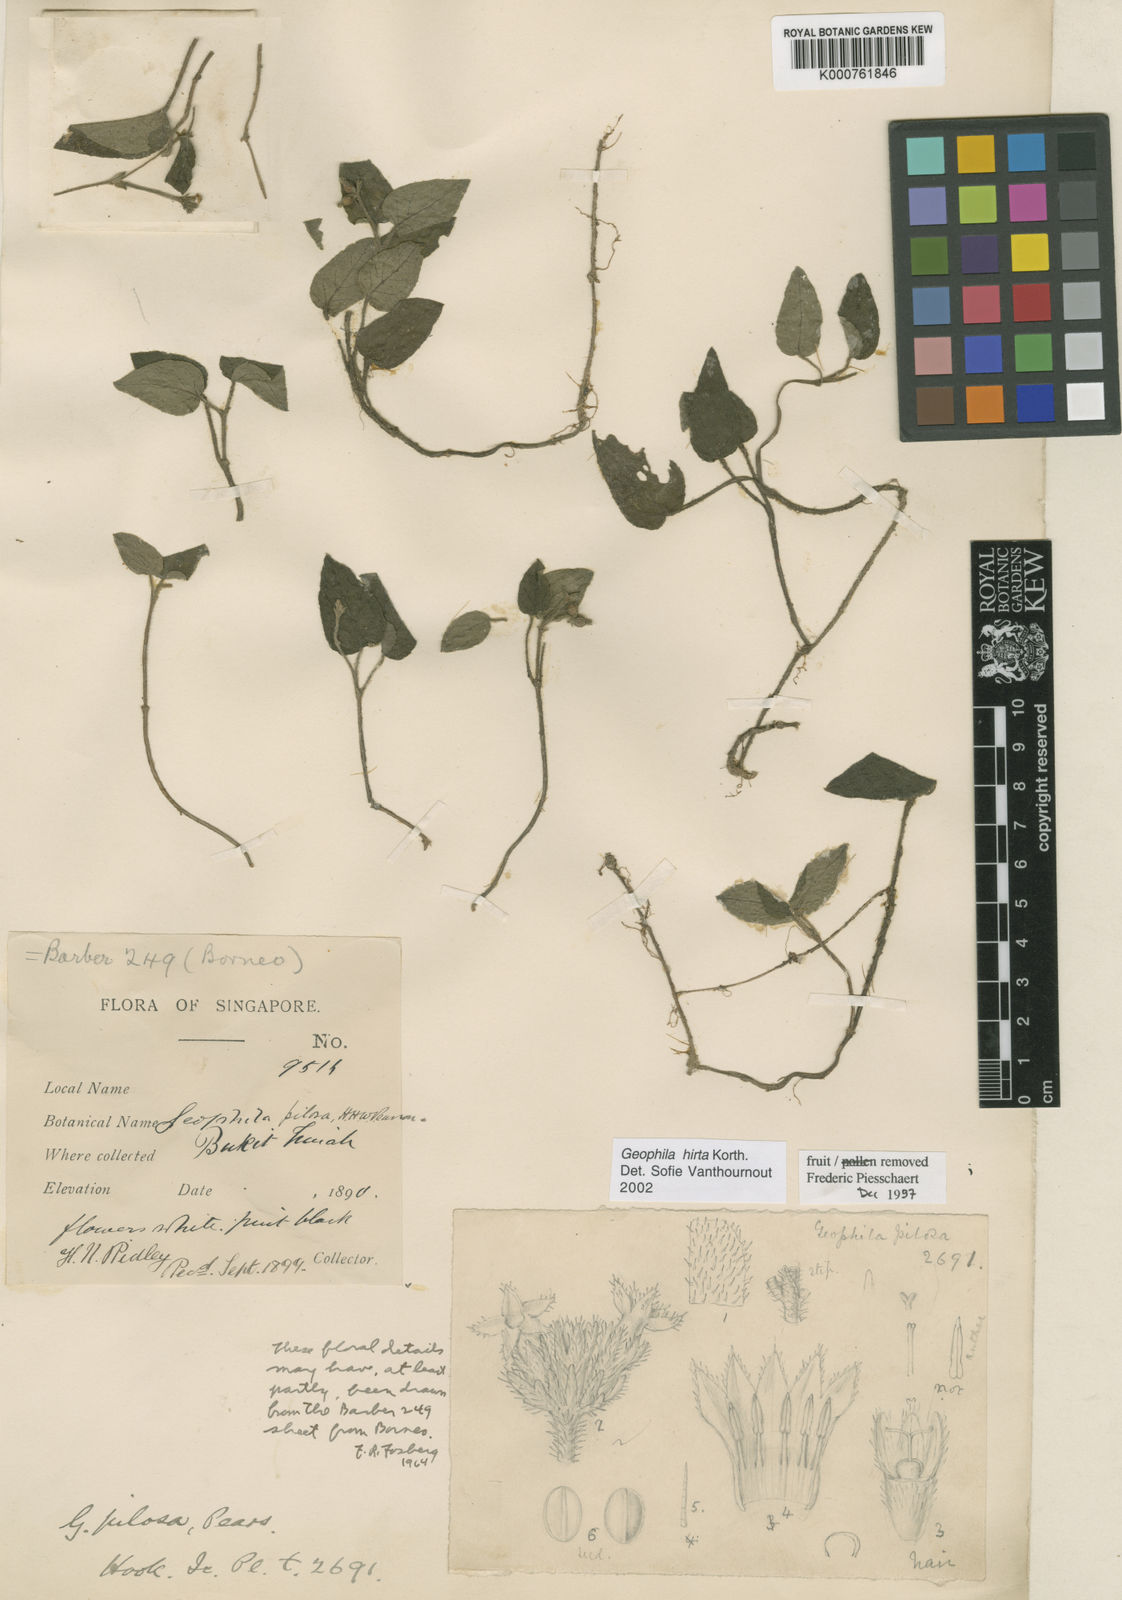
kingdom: Plantae
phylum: Tracheophyta
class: Magnoliopsida
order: Gentianales
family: Rubiaceae
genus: Geophila
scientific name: Geophila hirta
